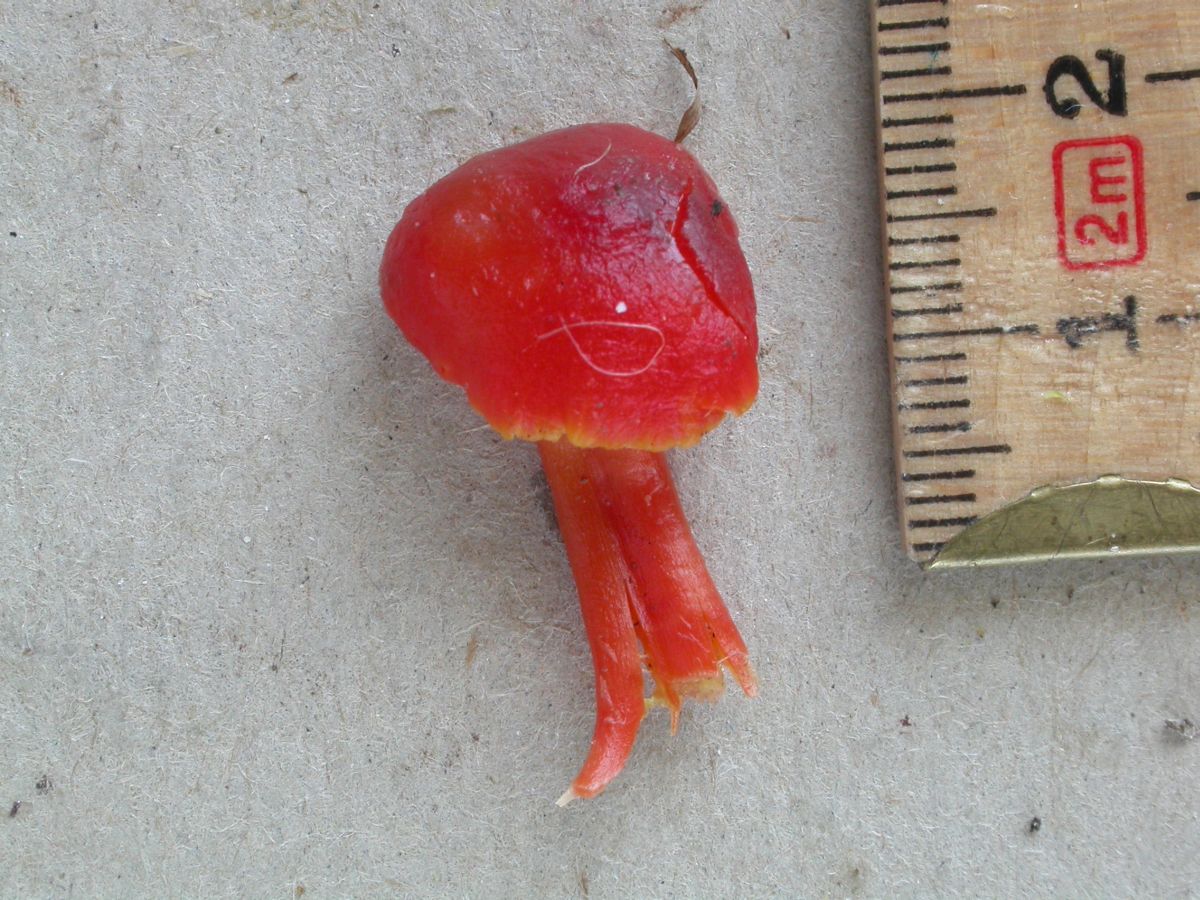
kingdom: Fungi
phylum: Basidiomycota
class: Agaricomycetes
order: Agaricales
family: Hygrophoraceae
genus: Hygrocybe
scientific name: Hygrocybe phaeococcinea
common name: sortdugget vokshat
